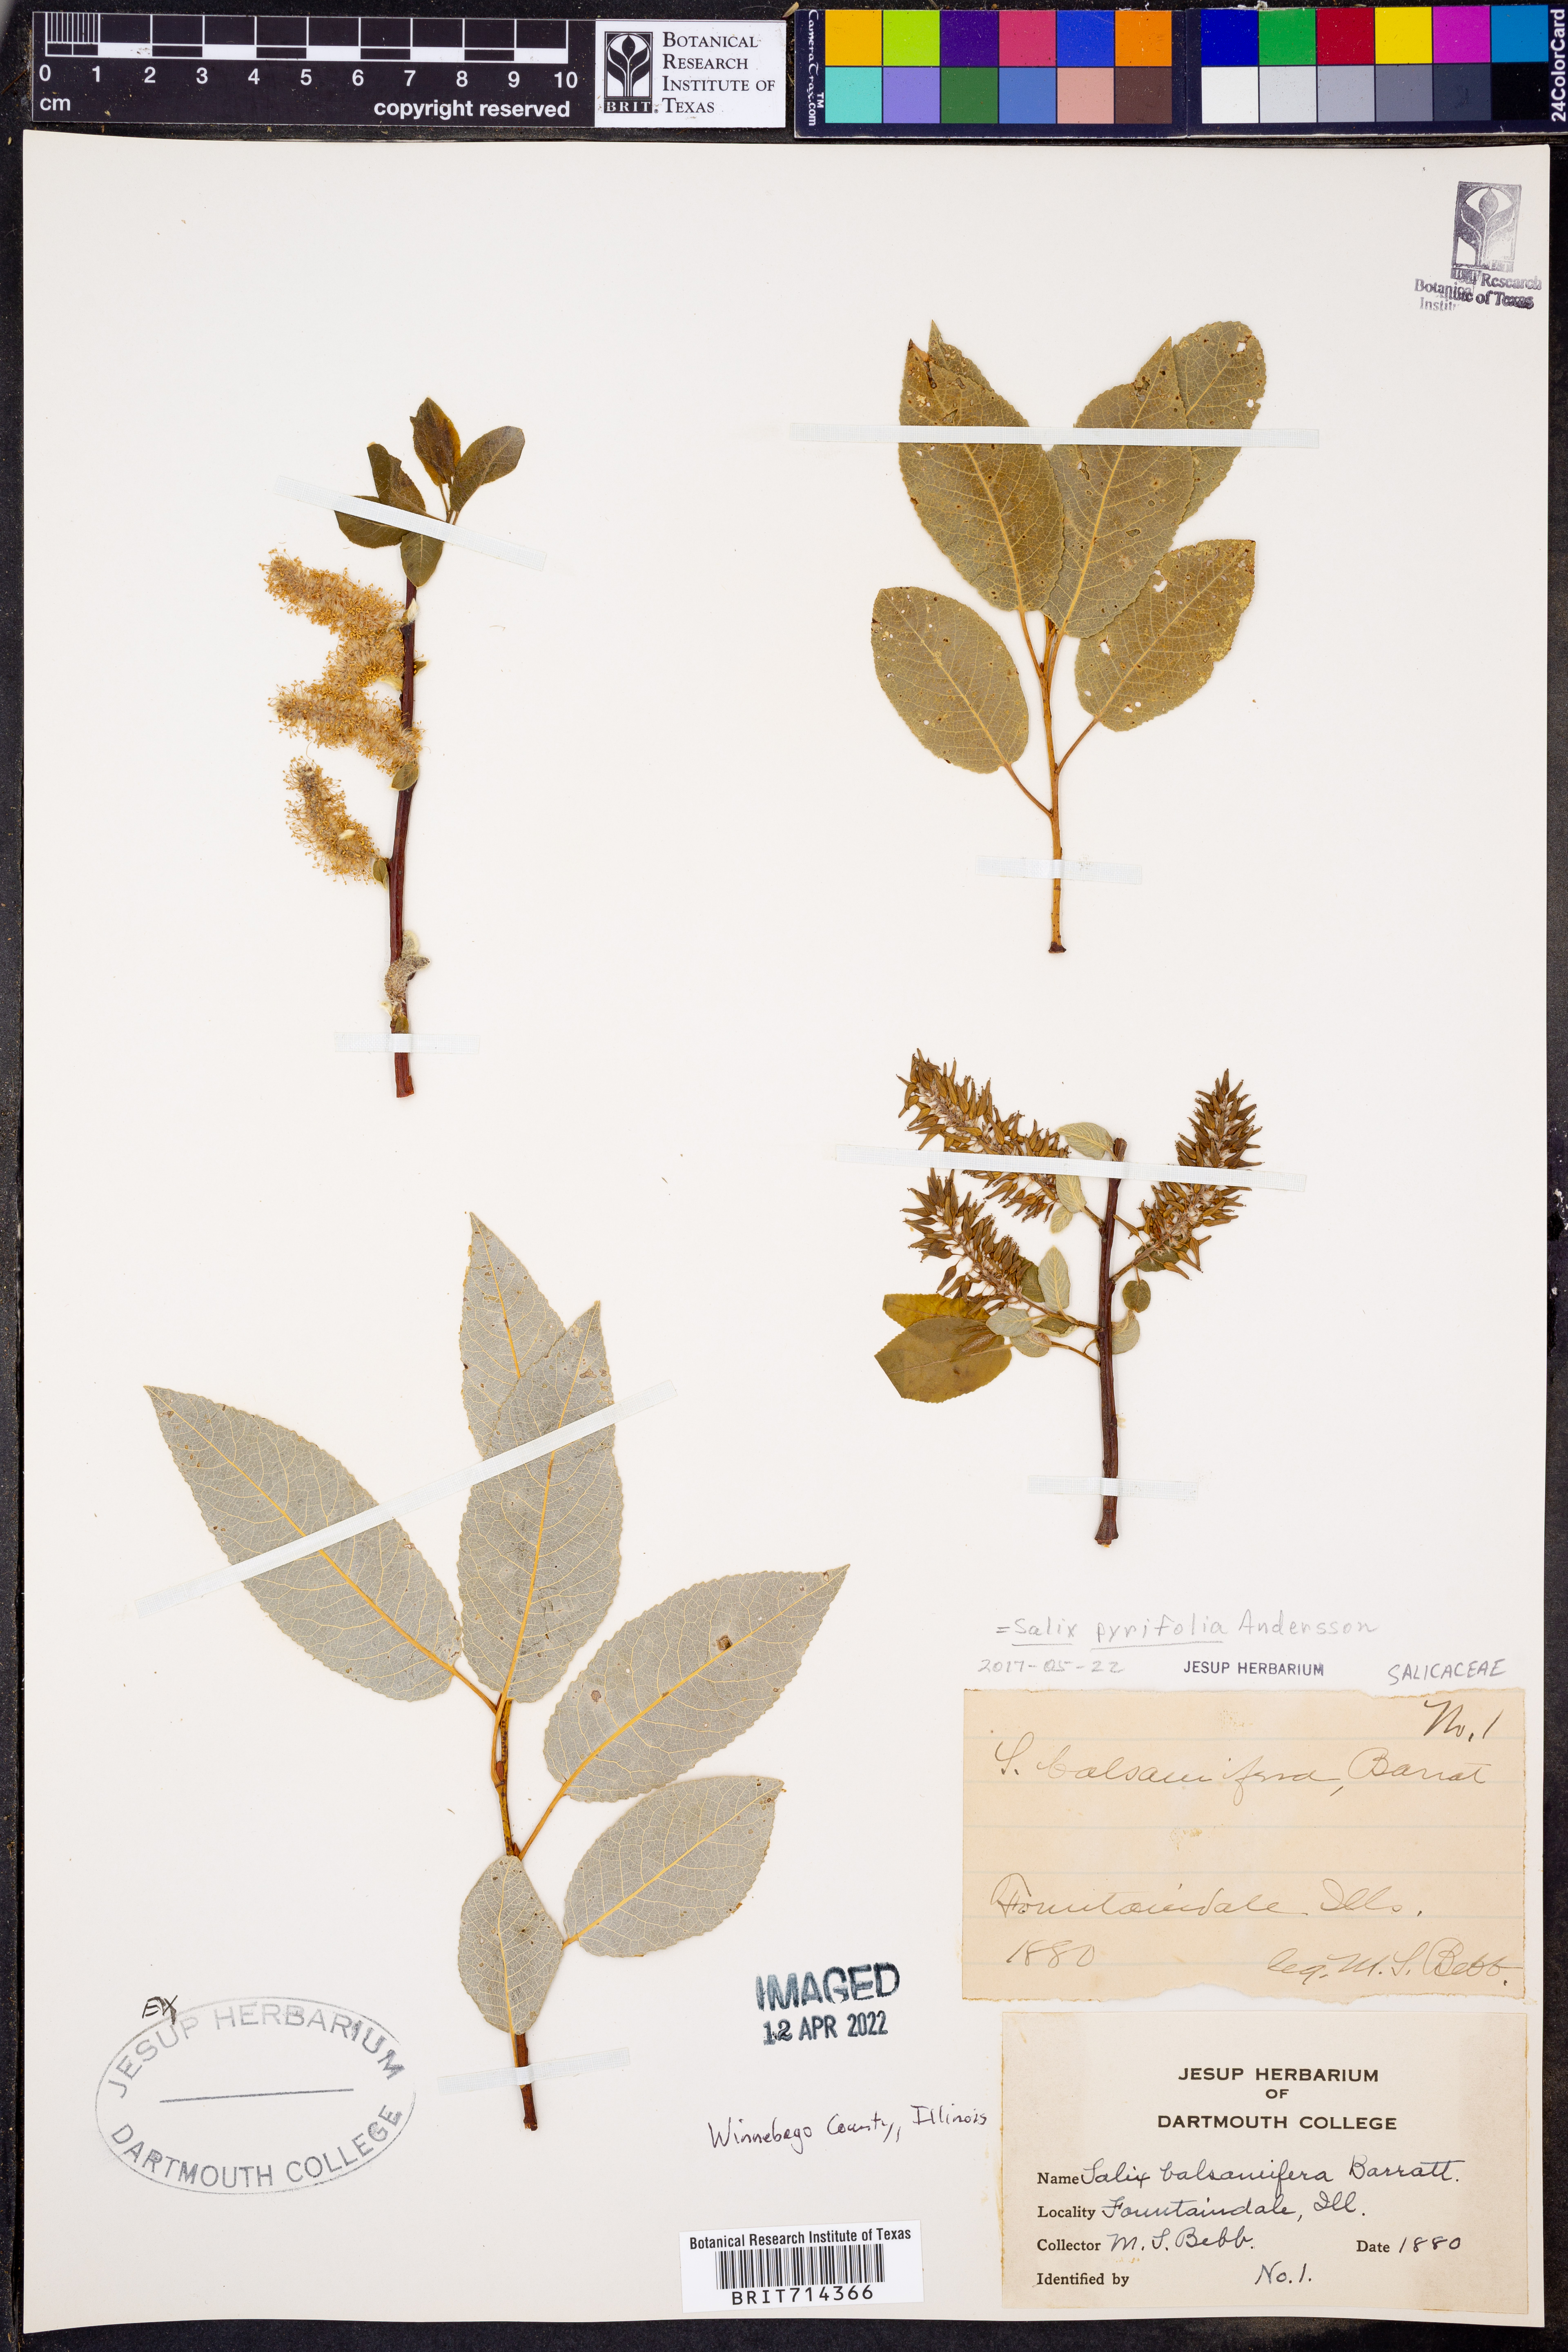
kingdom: Plantae
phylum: Tracheophyta
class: Magnoliopsida
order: Malpighiales
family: Salicaceae
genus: Salix
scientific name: Salix pyrifolia
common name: Balsam willow
